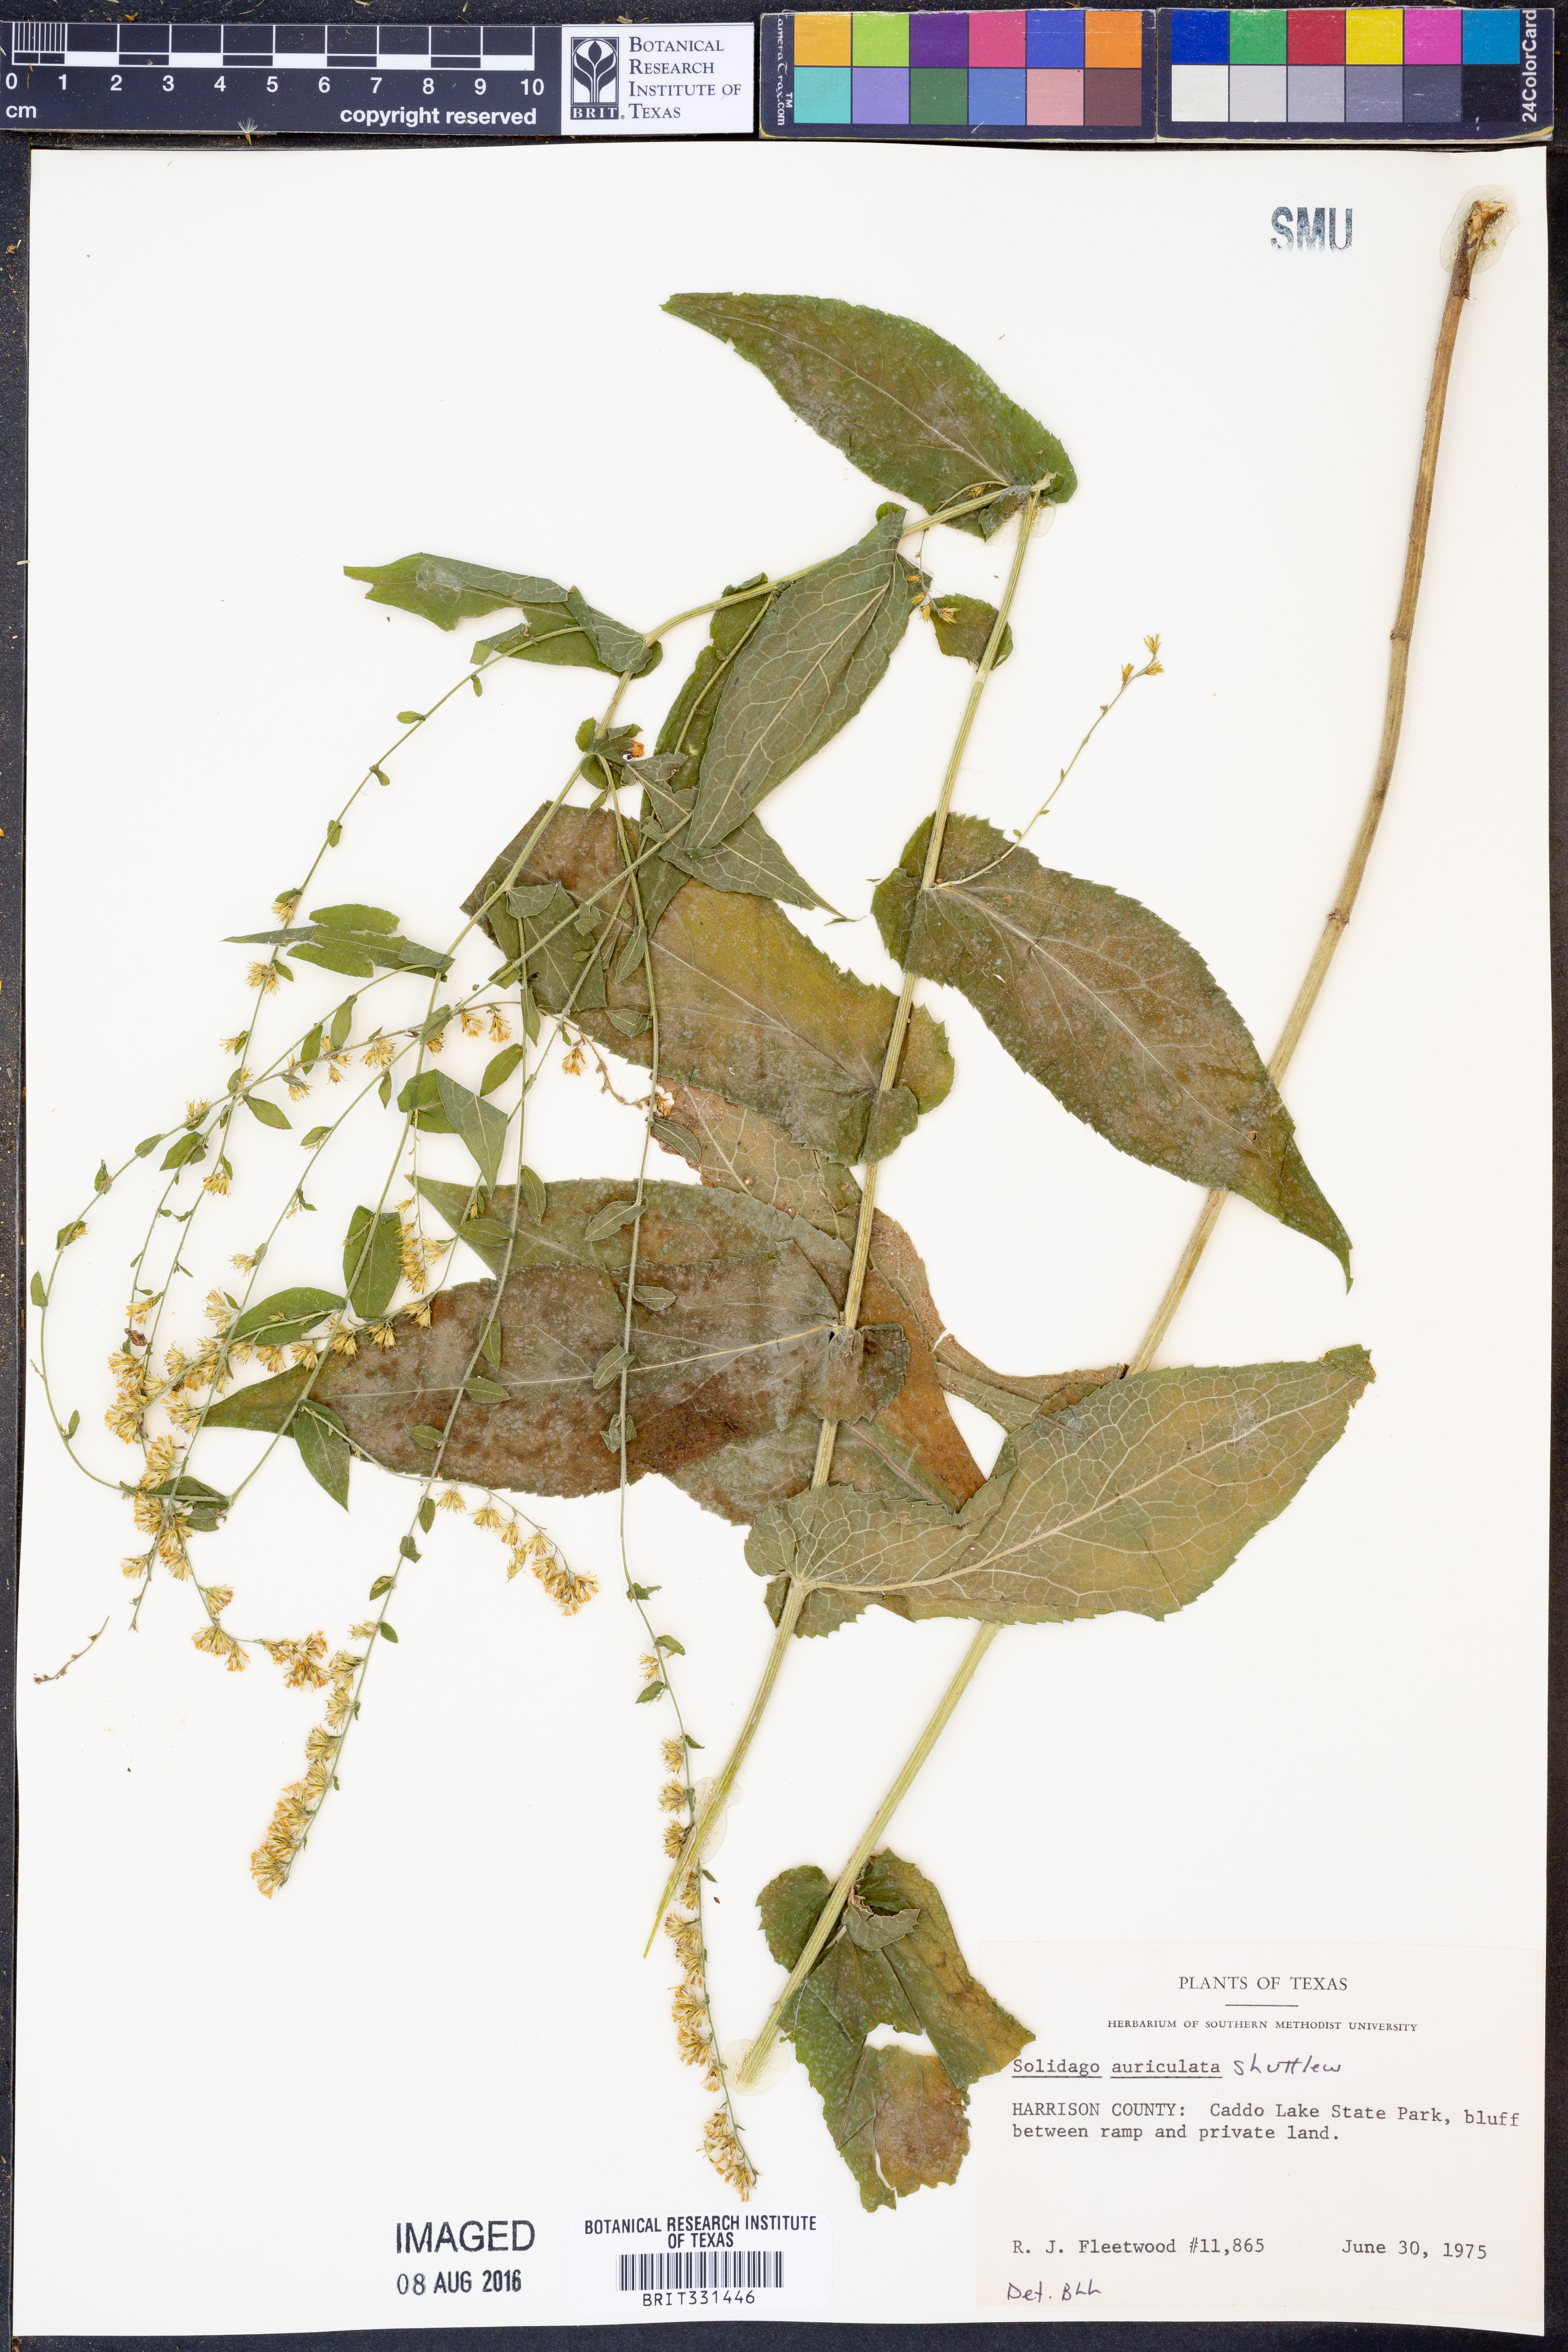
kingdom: Plantae
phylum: Tracheophyta
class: Magnoliopsida
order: Asterales
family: Asteraceae
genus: Solidago
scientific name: Solidago auriculata
